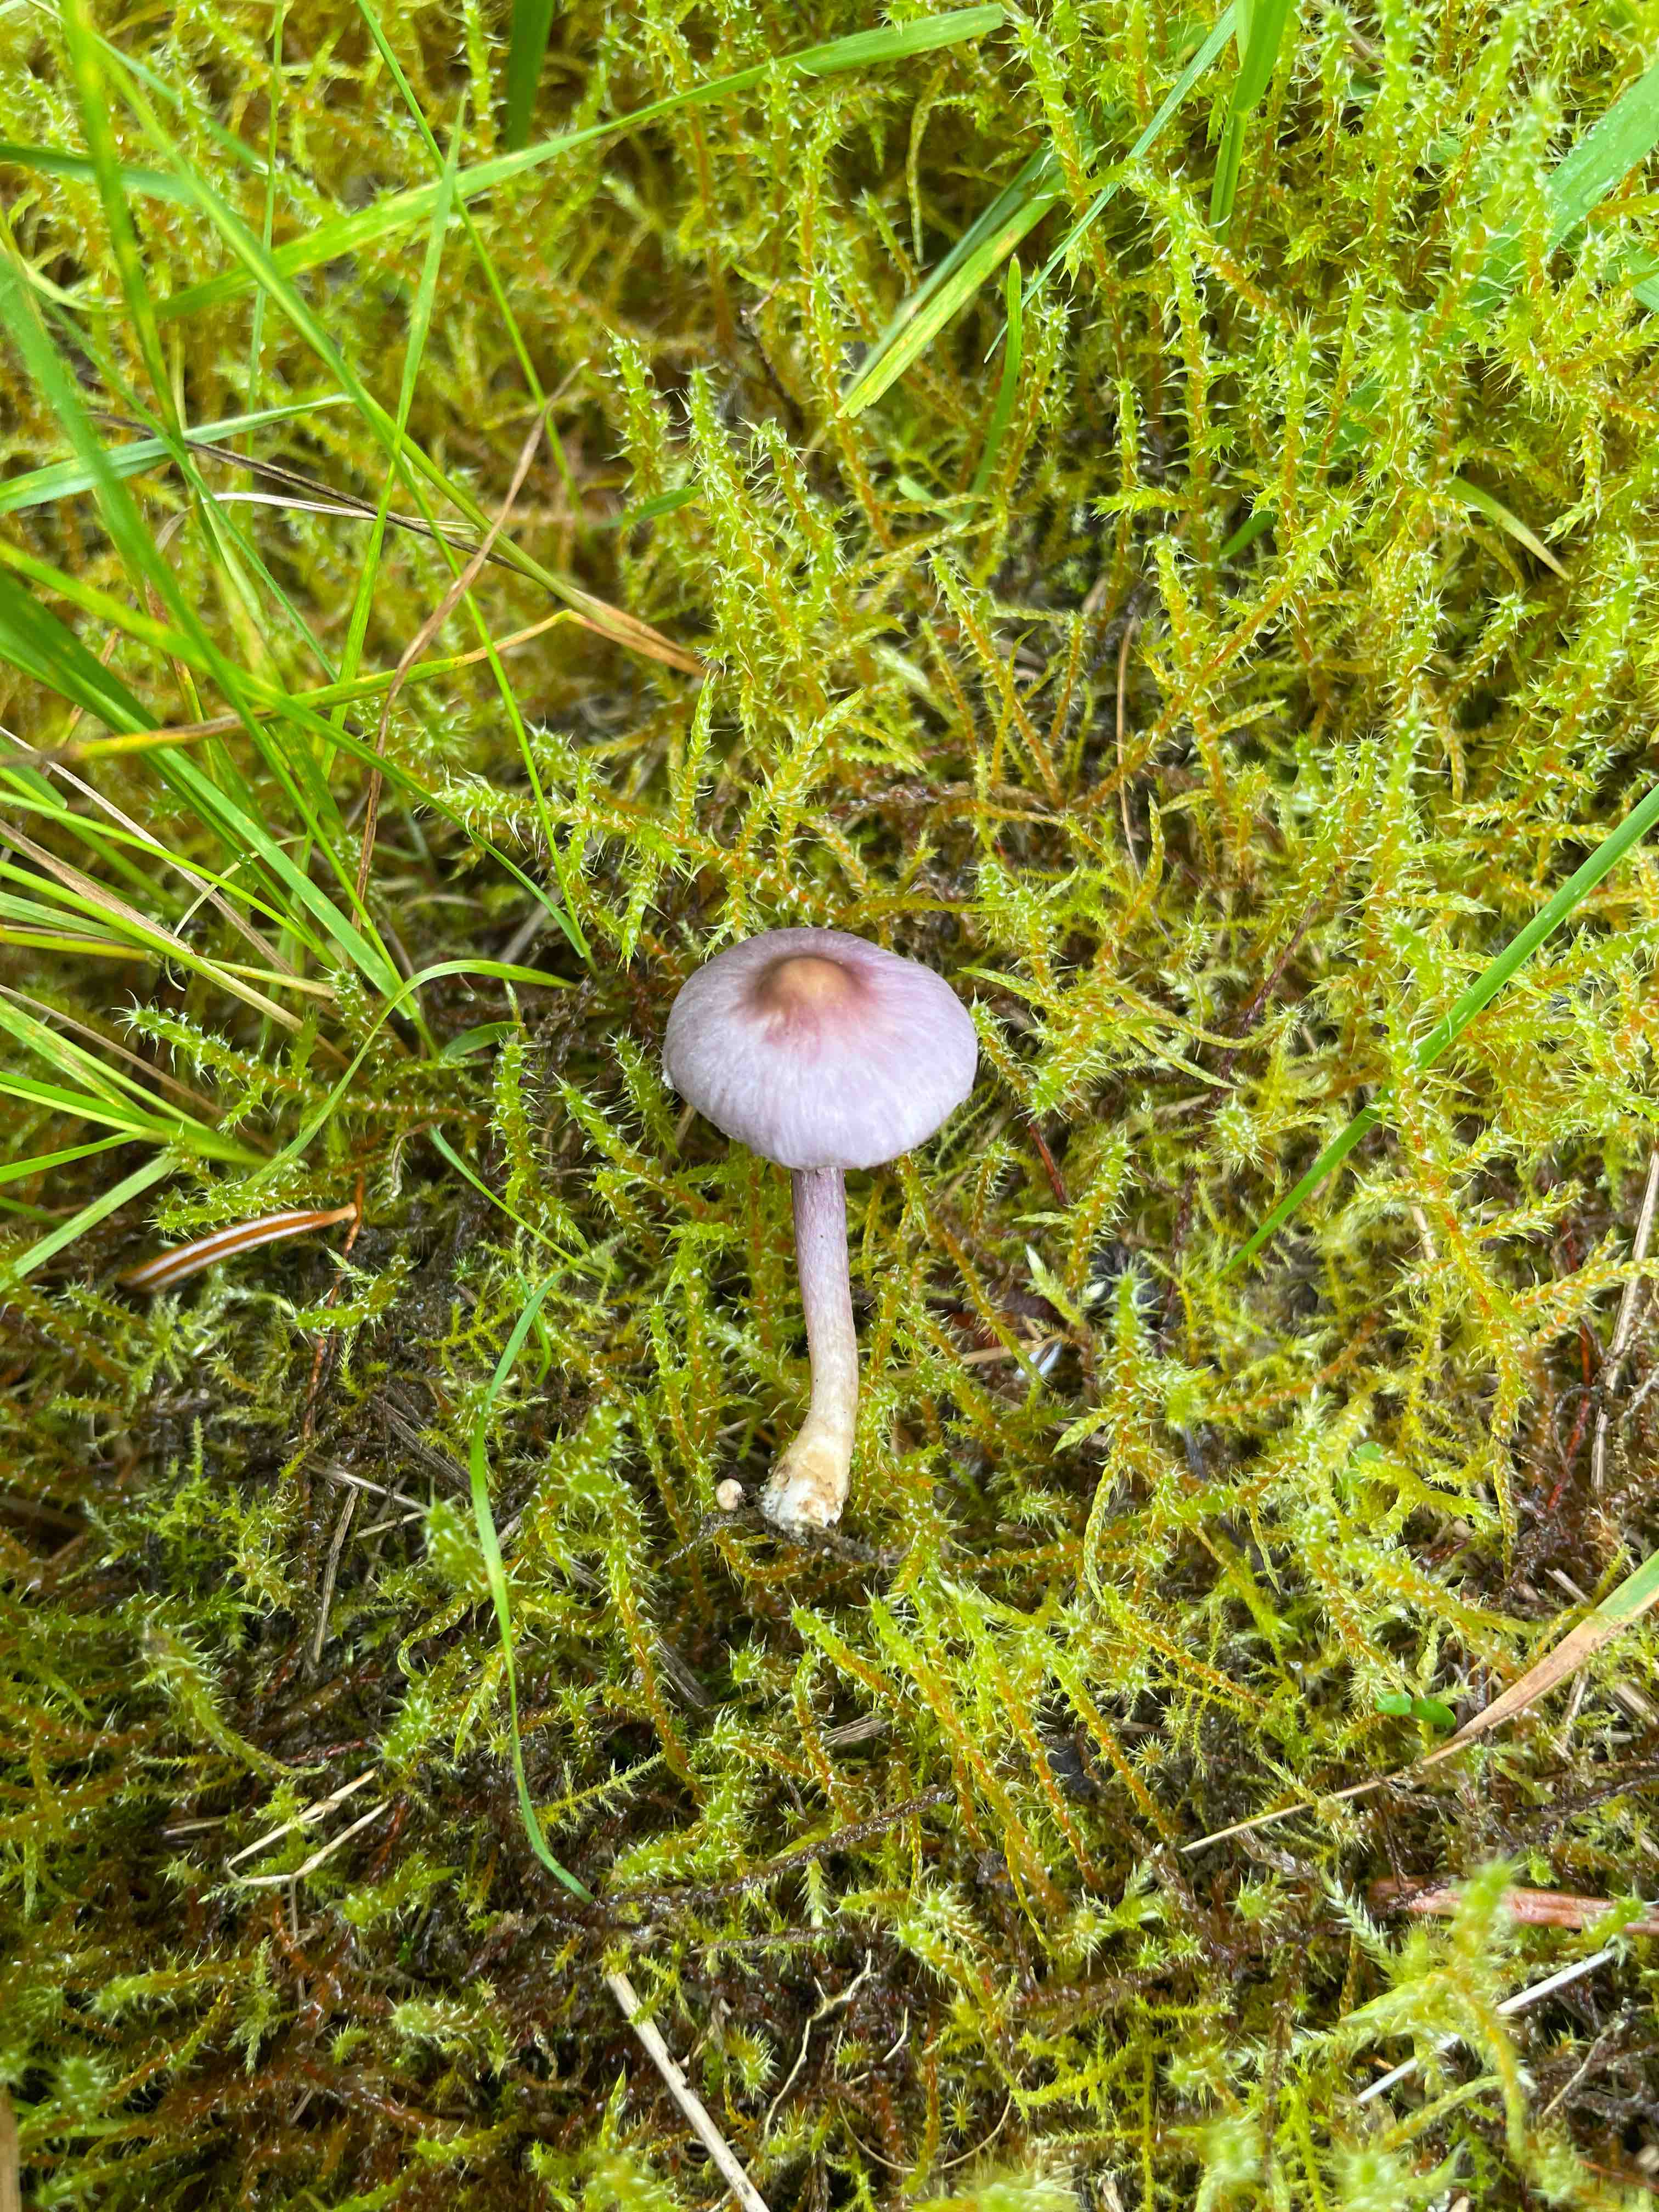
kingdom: Fungi
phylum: Basidiomycota
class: Agaricomycetes
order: Agaricales
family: Inocybaceae
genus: Inocybe
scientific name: Inocybe geophylla
